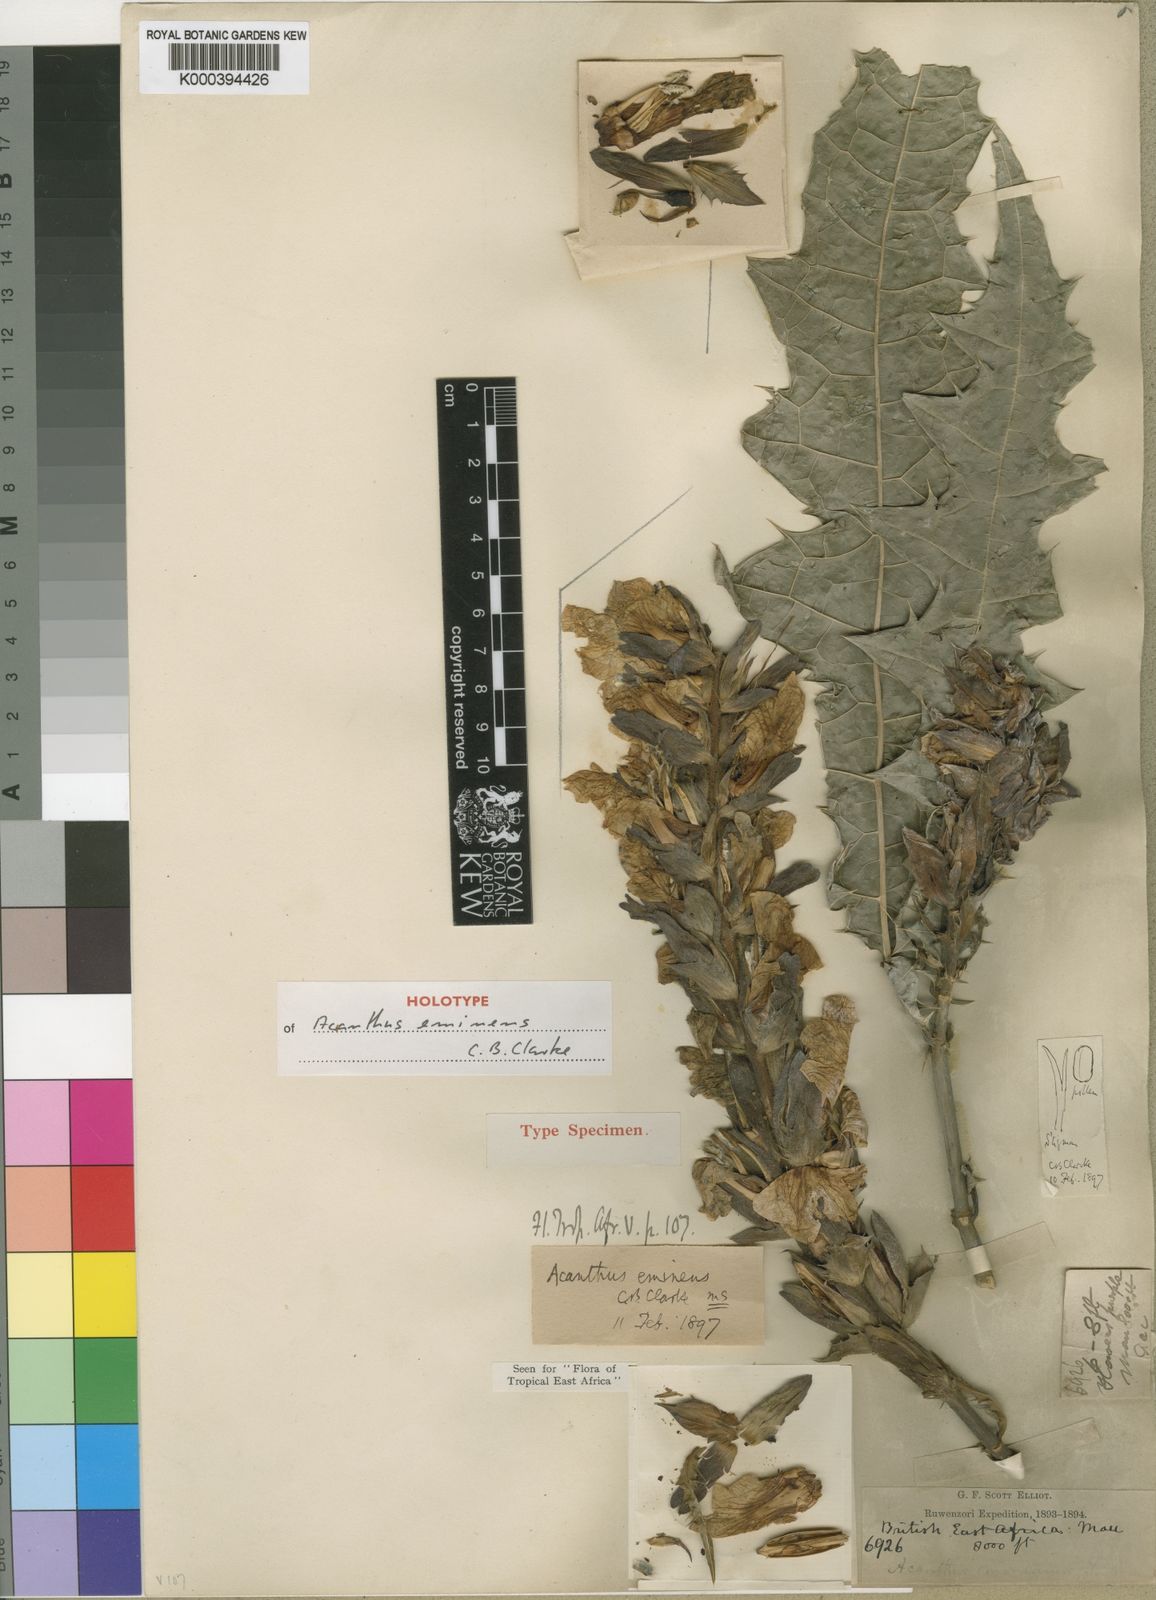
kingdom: Plantae
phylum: Tracheophyta
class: Magnoliopsida
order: Lamiales
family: Acanthaceae
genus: Acanthus
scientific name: Acanthus eminens
